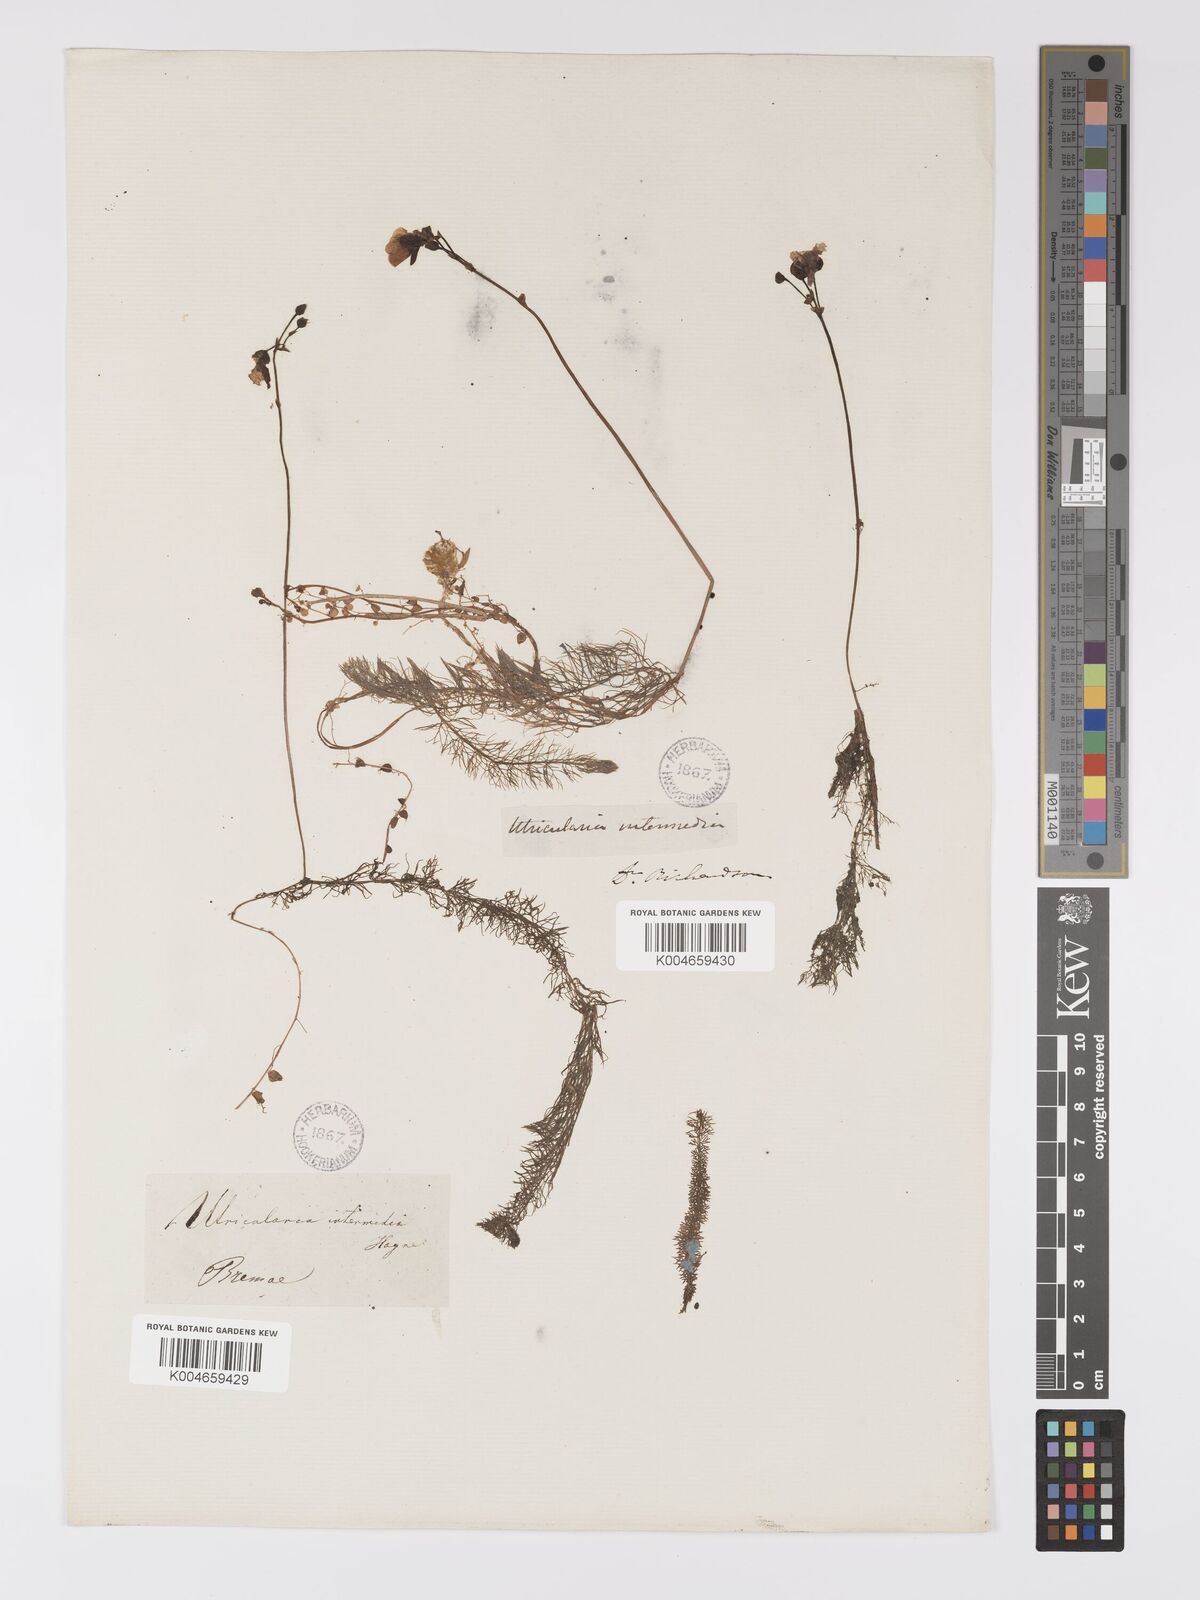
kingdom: Plantae
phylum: Tracheophyta
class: Magnoliopsida
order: Lamiales
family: Lentibulariaceae
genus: Utricularia
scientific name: Utricularia intermedia
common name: Intermediate bladderwort
